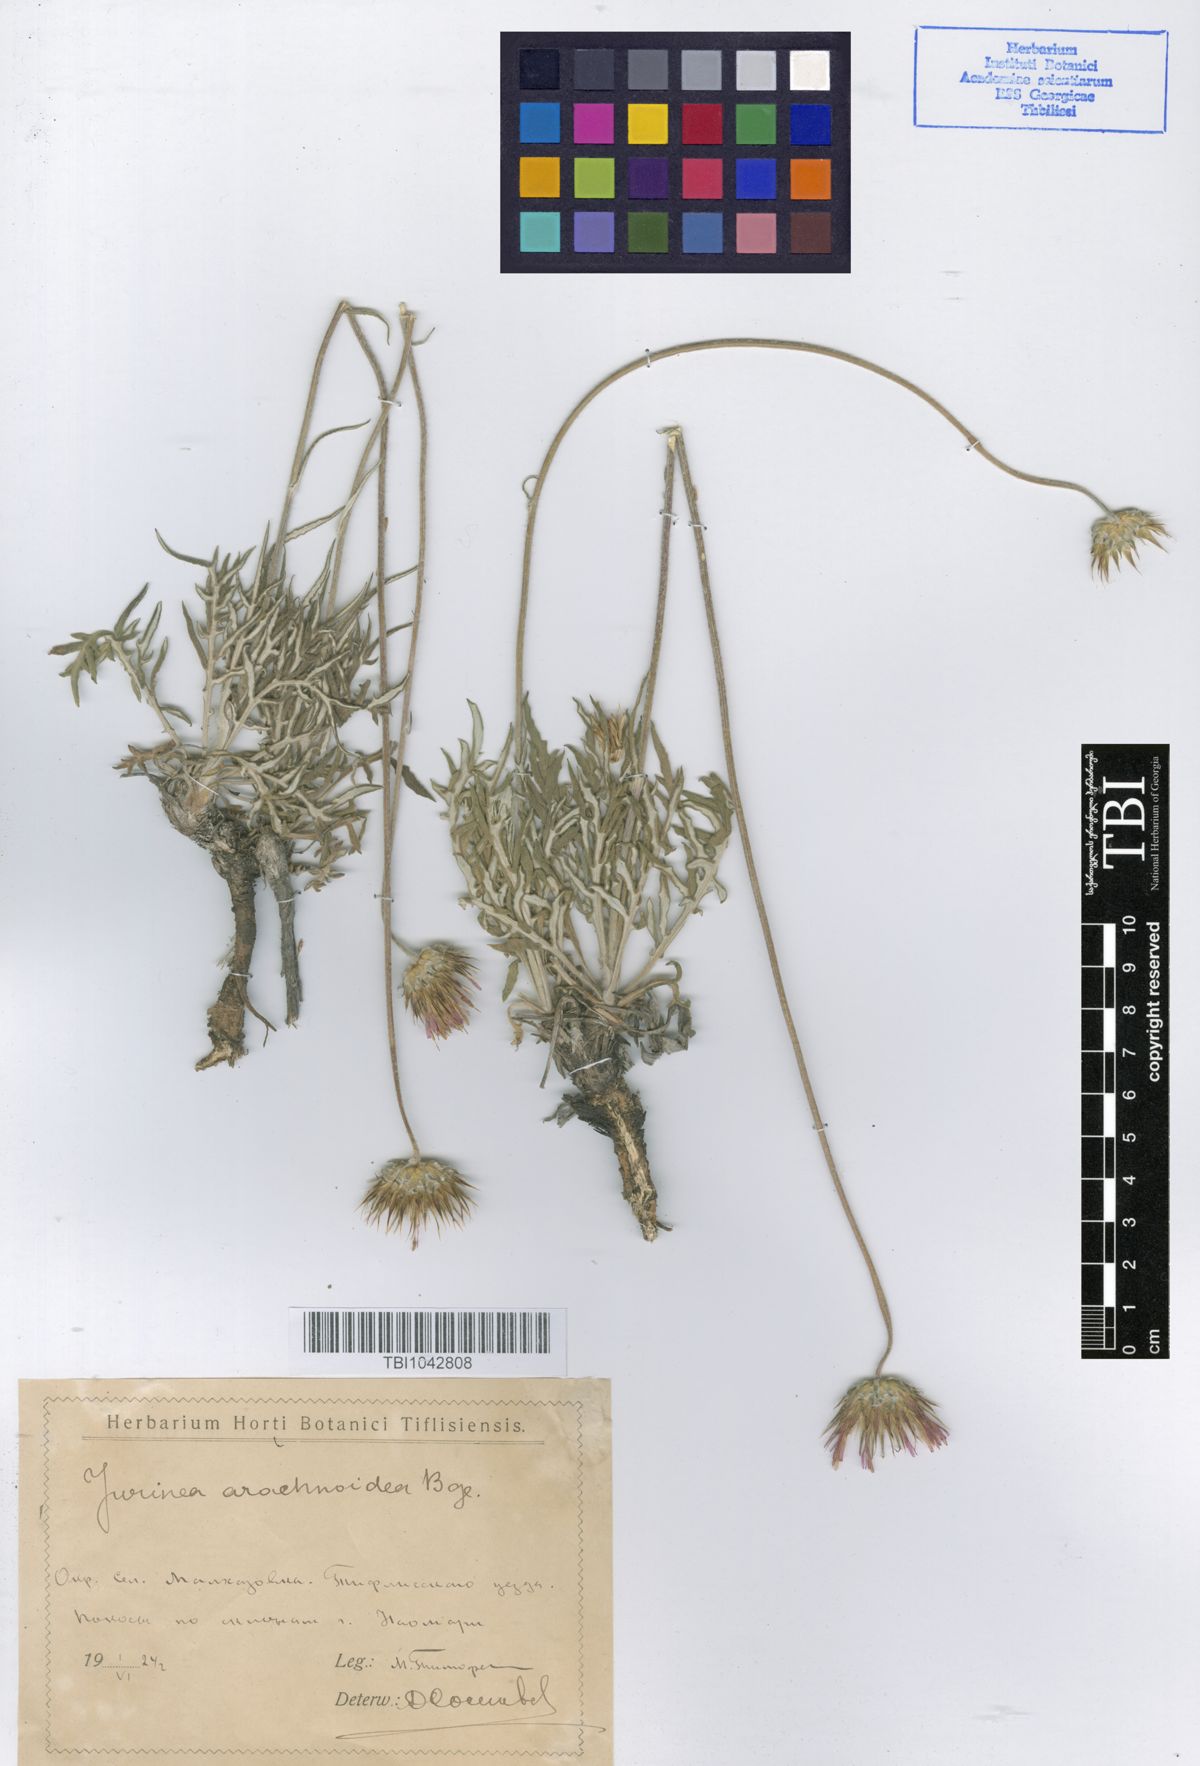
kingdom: Plantae
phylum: Tracheophyta
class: Magnoliopsida
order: Asterales
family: Asteraceae
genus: Jurinea
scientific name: Jurinea blanda
